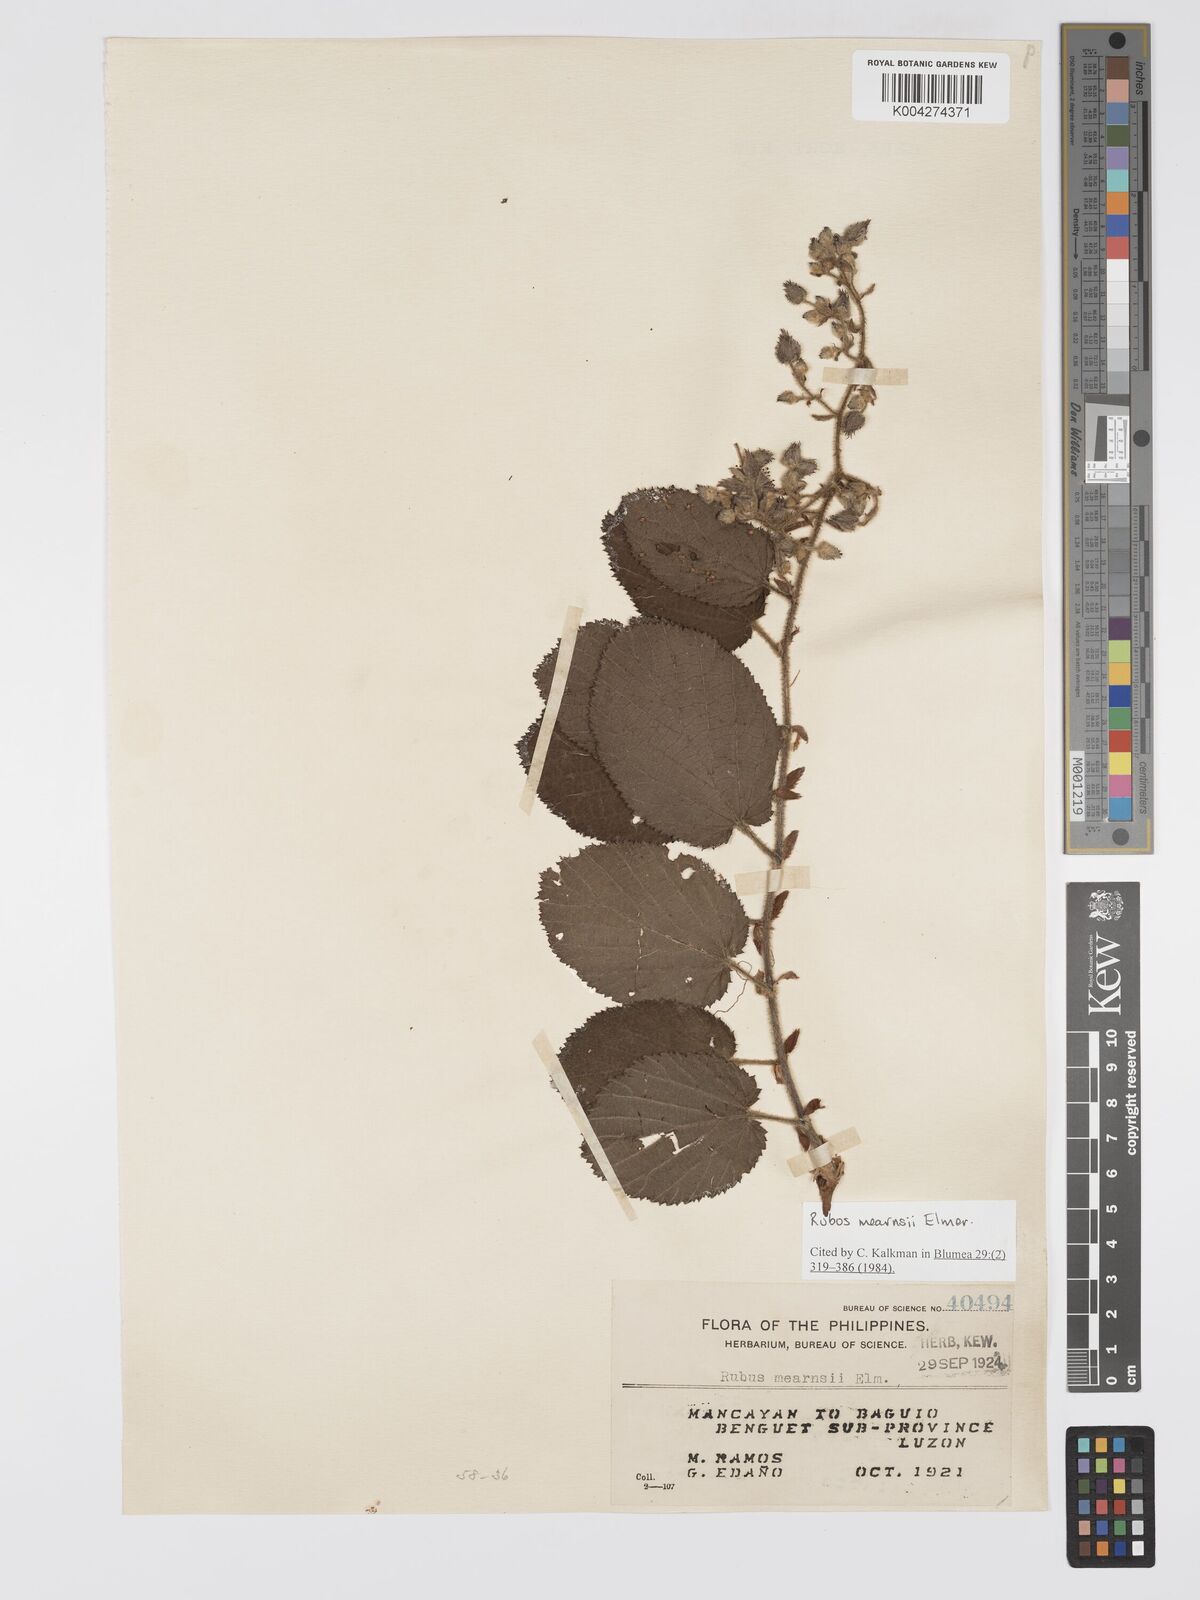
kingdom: Plantae
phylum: Tracheophyta
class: Magnoliopsida
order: Rosales
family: Rosaceae
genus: Rubus
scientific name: Rubus
